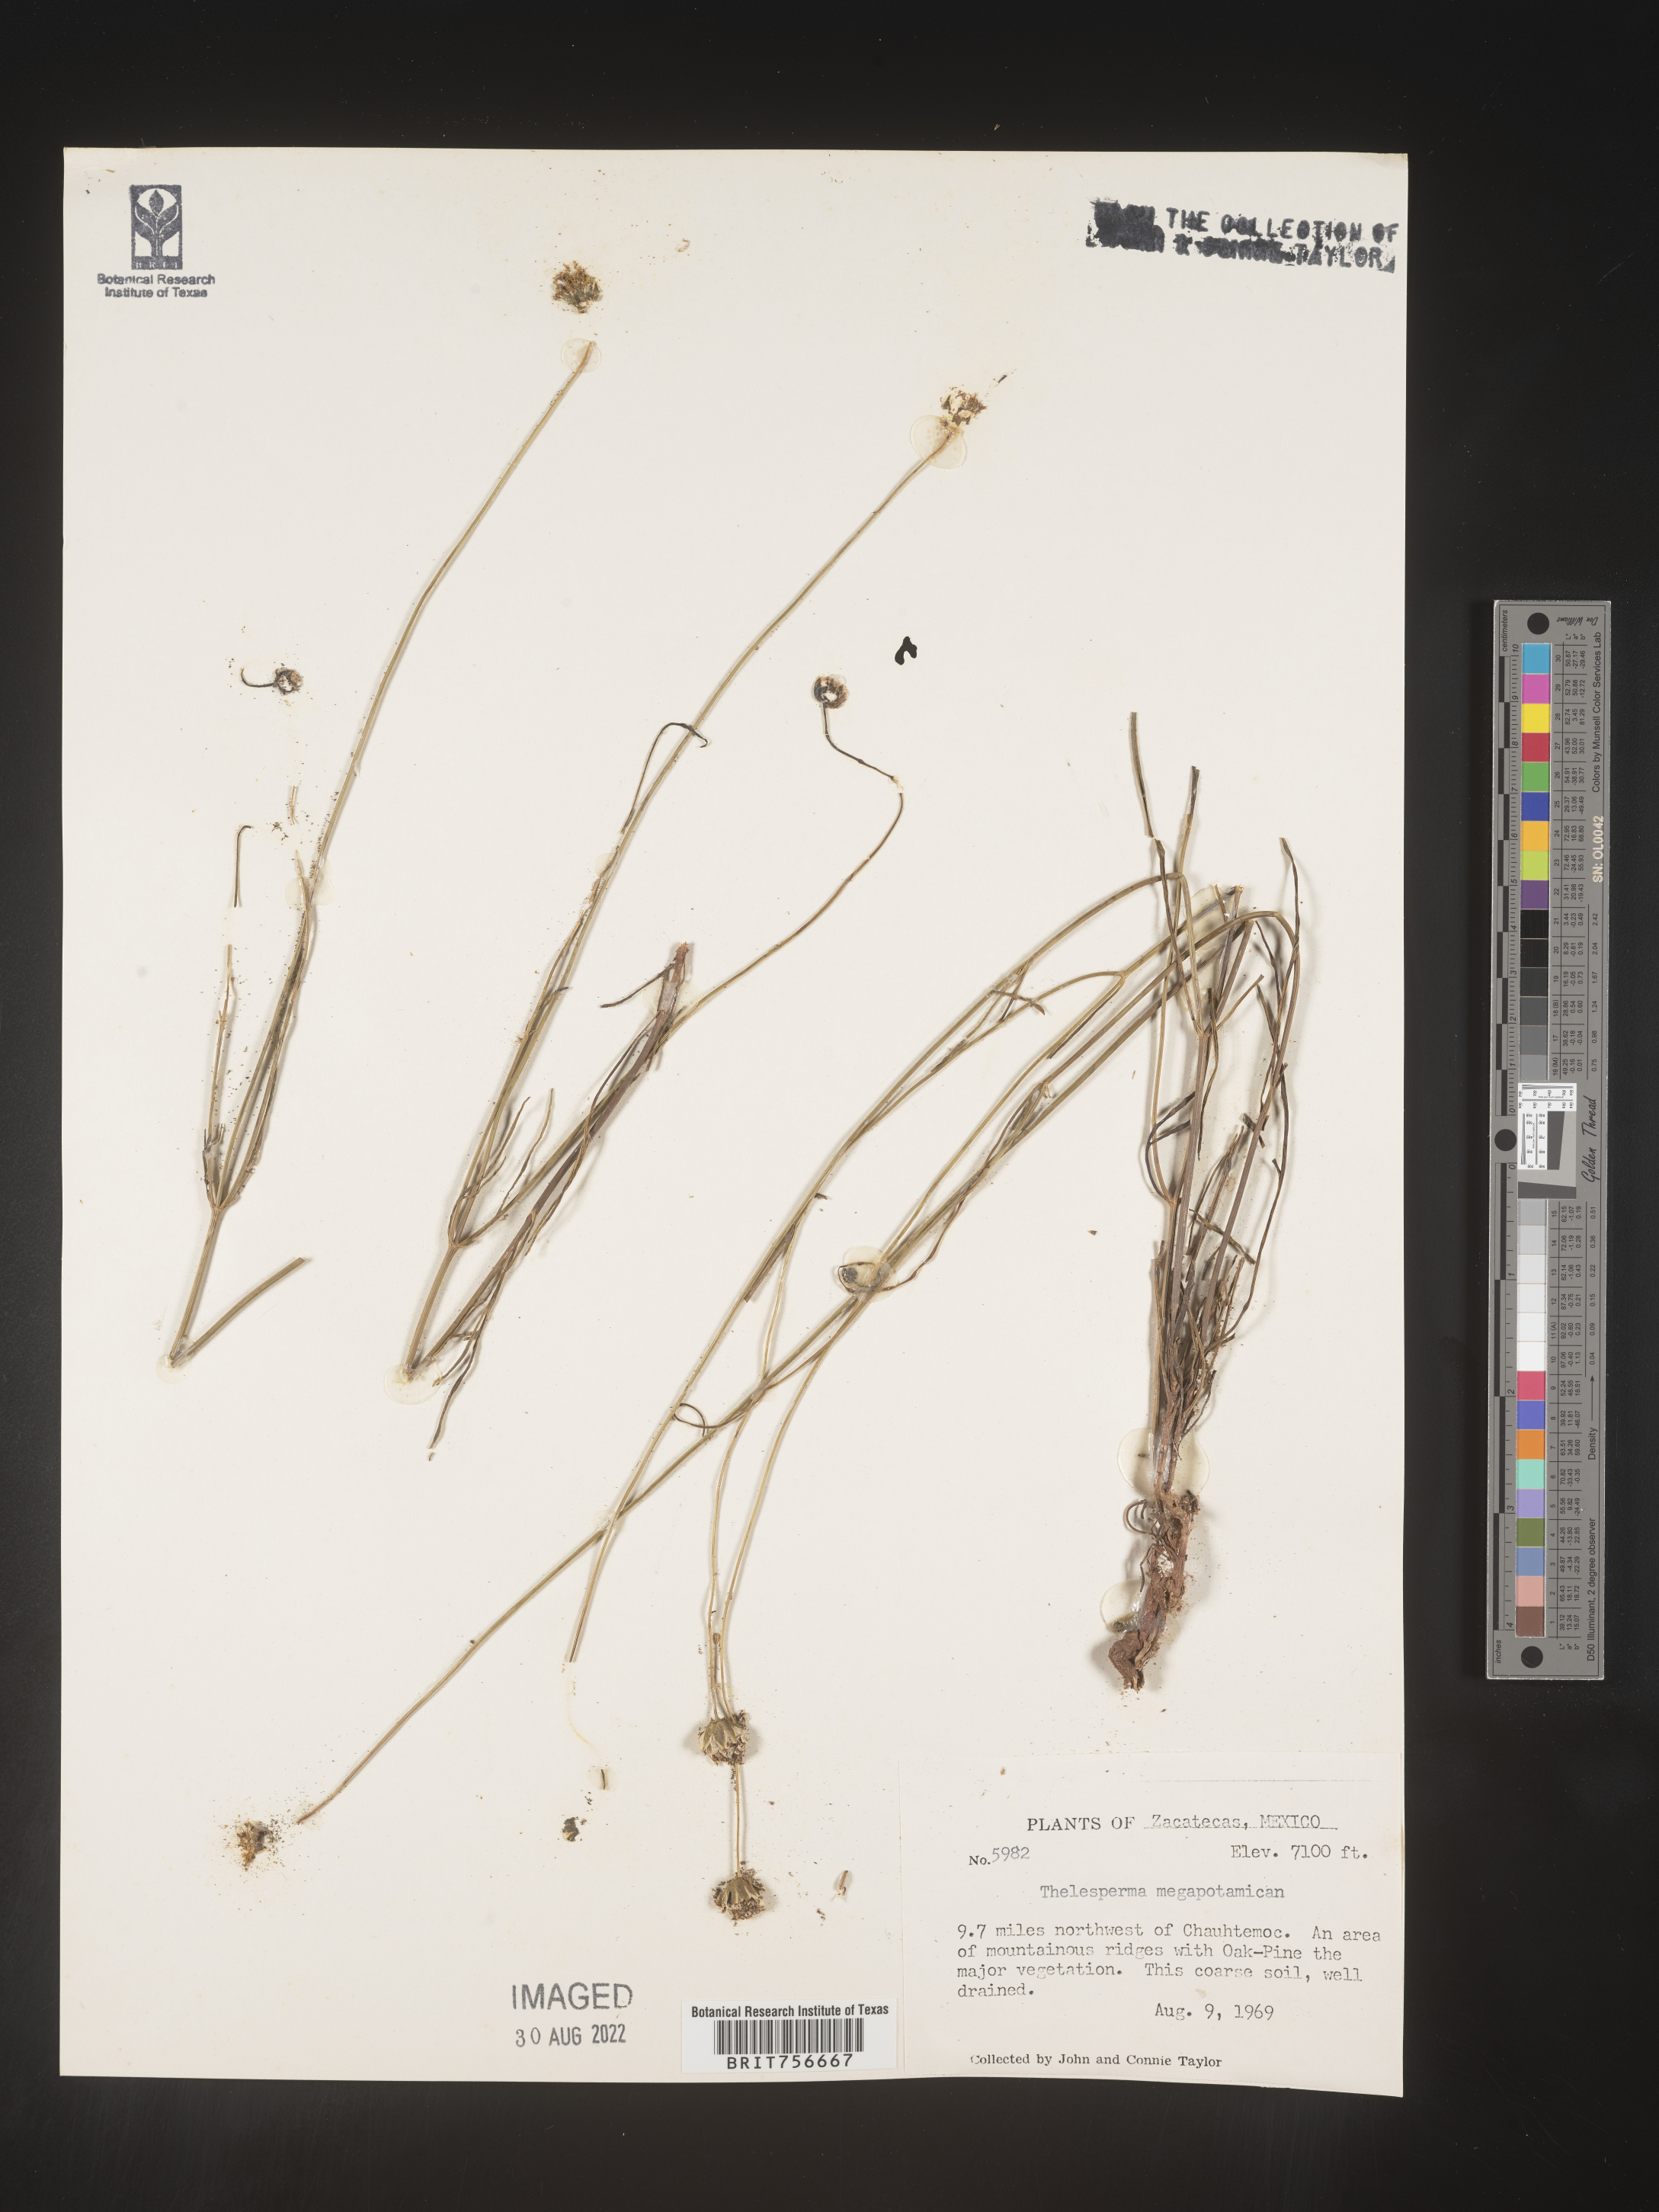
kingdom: Plantae
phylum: Tracheophyta
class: Magnoliopsida
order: Asterales
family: Asteraceae
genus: Thelesperma
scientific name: Thelesperma
